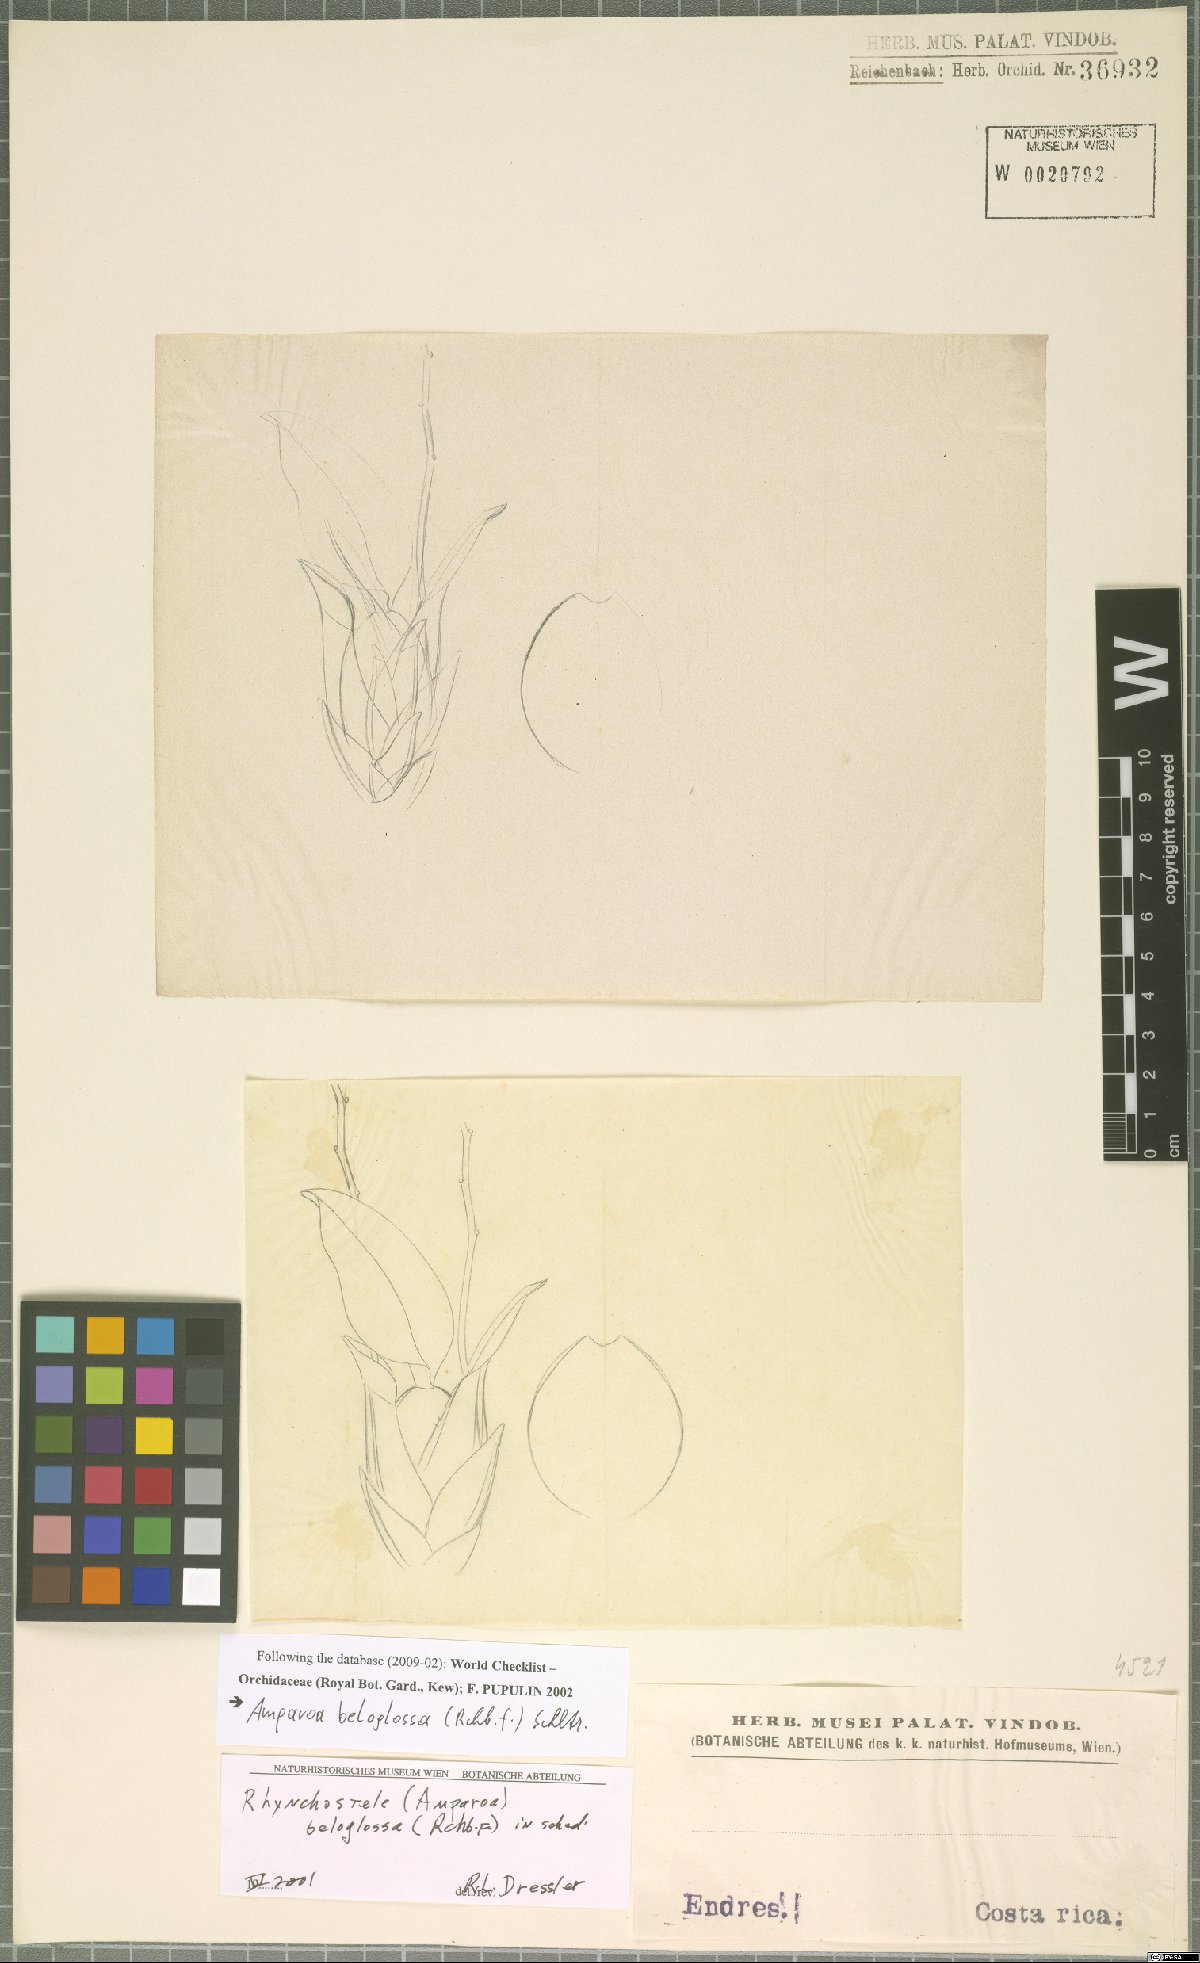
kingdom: Plantae
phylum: Tracheophyta
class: Liliopsida
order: Asparagales
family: Orchidaceae
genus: Rossioglossum
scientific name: Rossioglossum beloglossum
